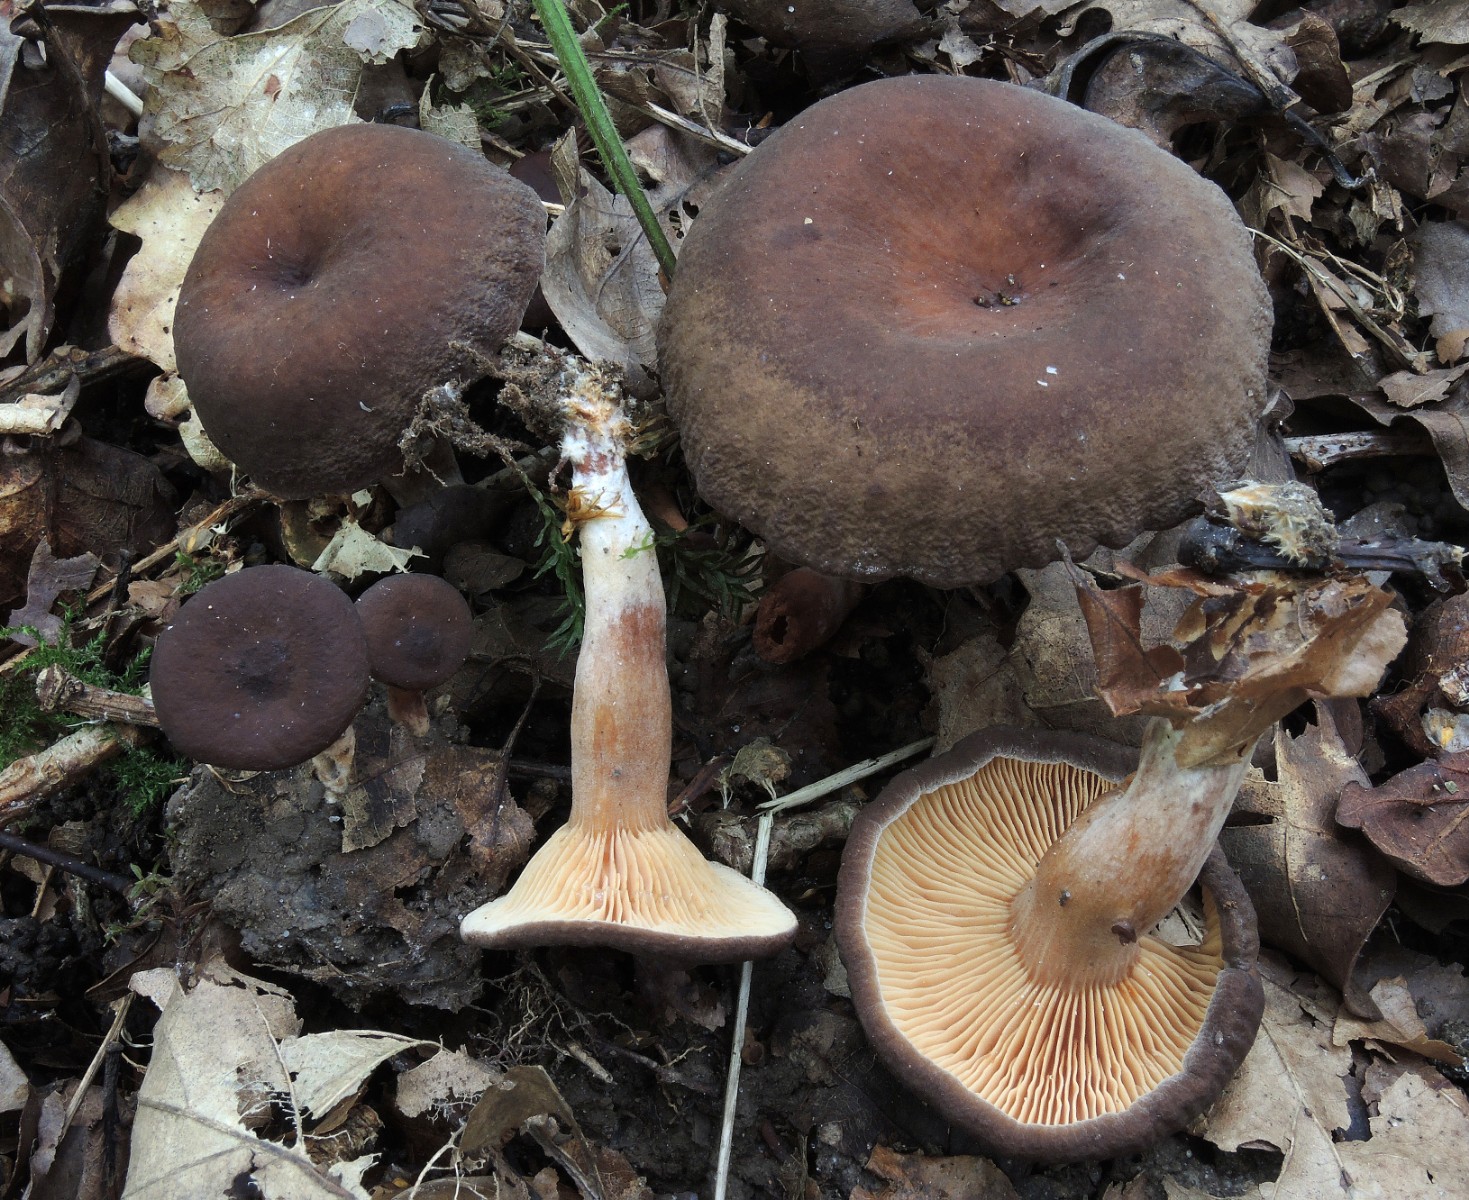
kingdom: Fungi
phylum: Basidiomycota
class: Agaricomycetes
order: Russulales
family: Russulaceae
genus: Lactarius
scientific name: Lactarius serifluus
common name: tæge-mælkehat
